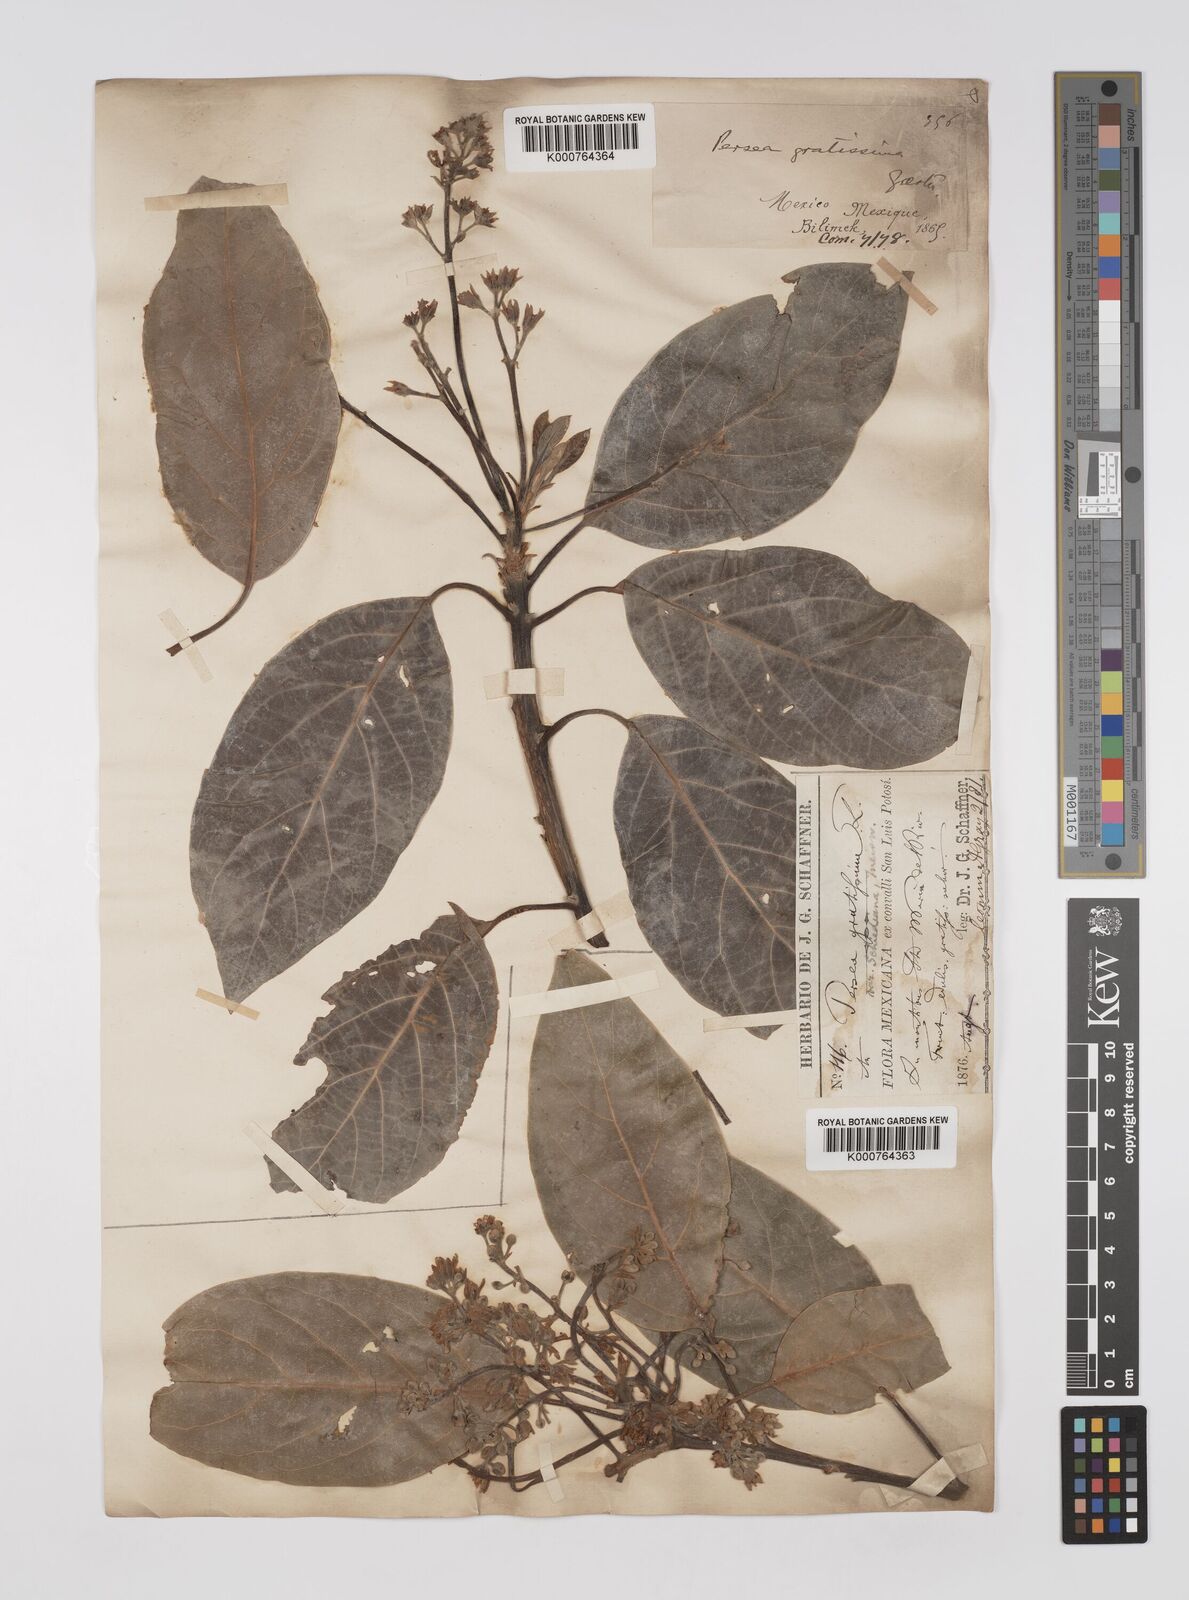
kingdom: Plantae
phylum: Tracheophyta
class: Magnoliopsida
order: Laurales
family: Lauraceae
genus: Persea
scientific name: Persea americana
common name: Avocado
